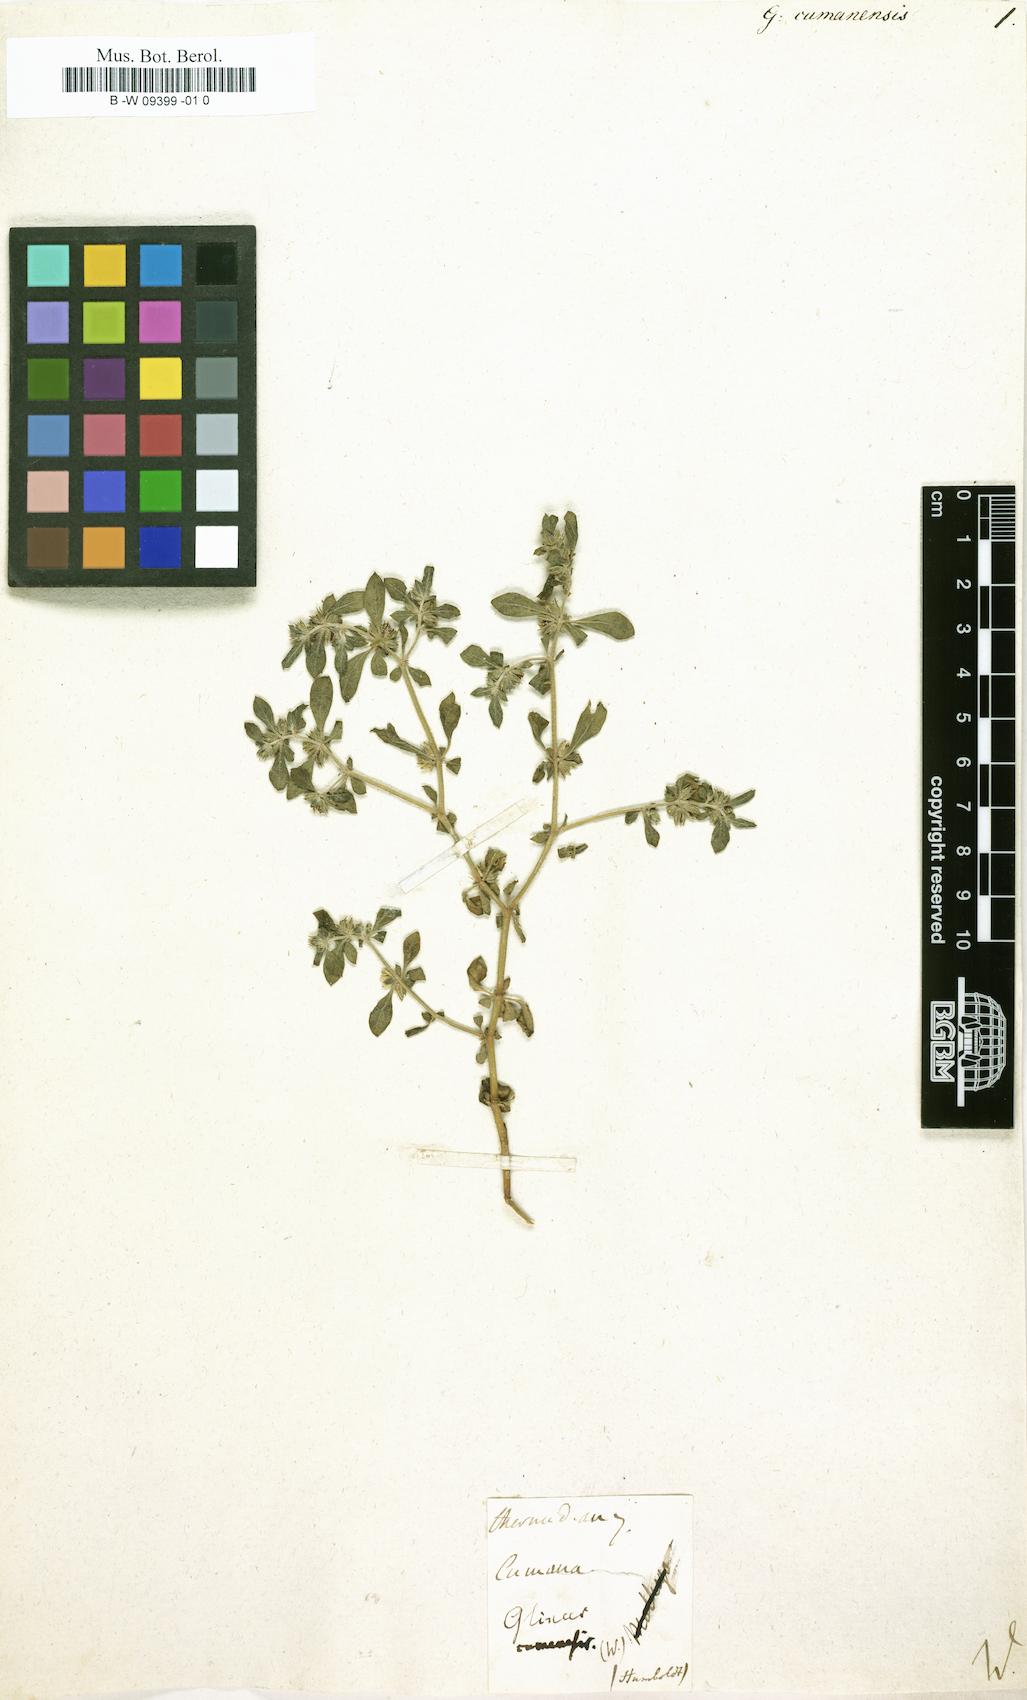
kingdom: Plantae
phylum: Tracheophyta
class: Magnoliopsida
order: Caryophyllales
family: Molluginaceae
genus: Glinus
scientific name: Glinus
